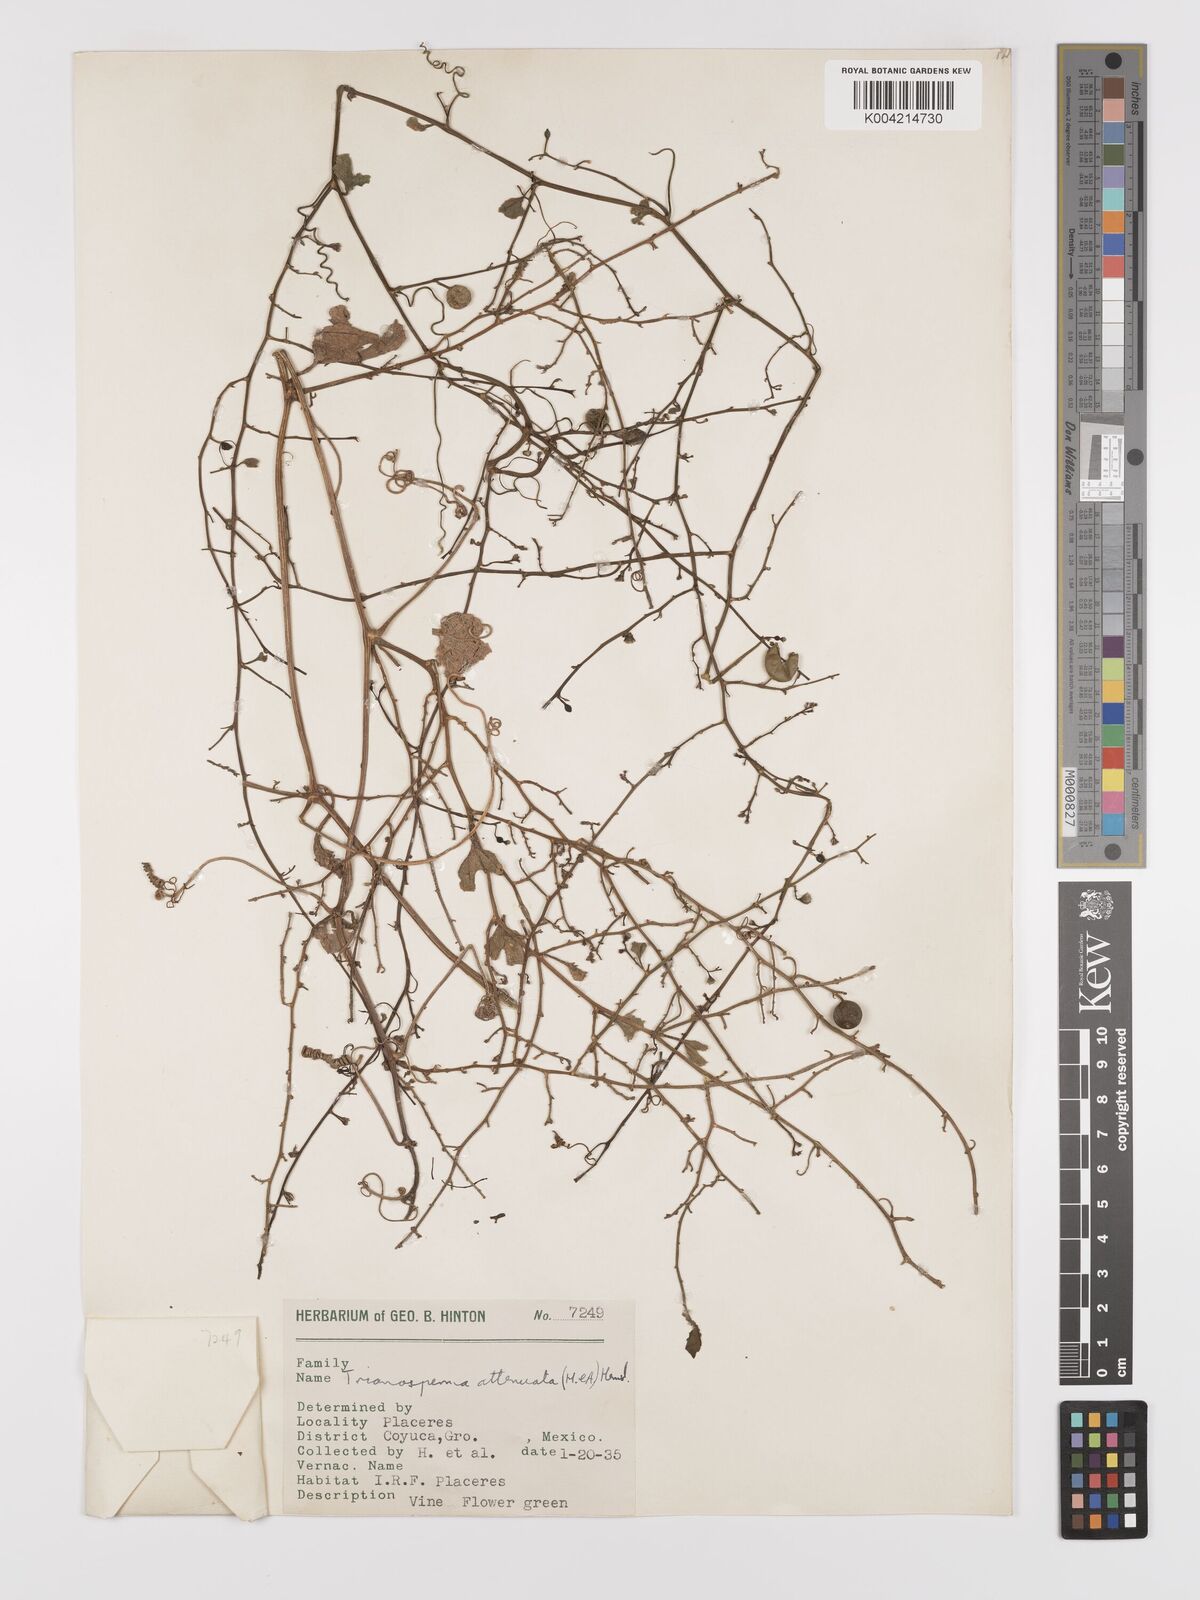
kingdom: Plantae
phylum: Tracheophyta
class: Magnoliopsida
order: Cucurbitales
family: Cucurbitaceae
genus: Cayaponia
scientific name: Cayaponia attenuata
